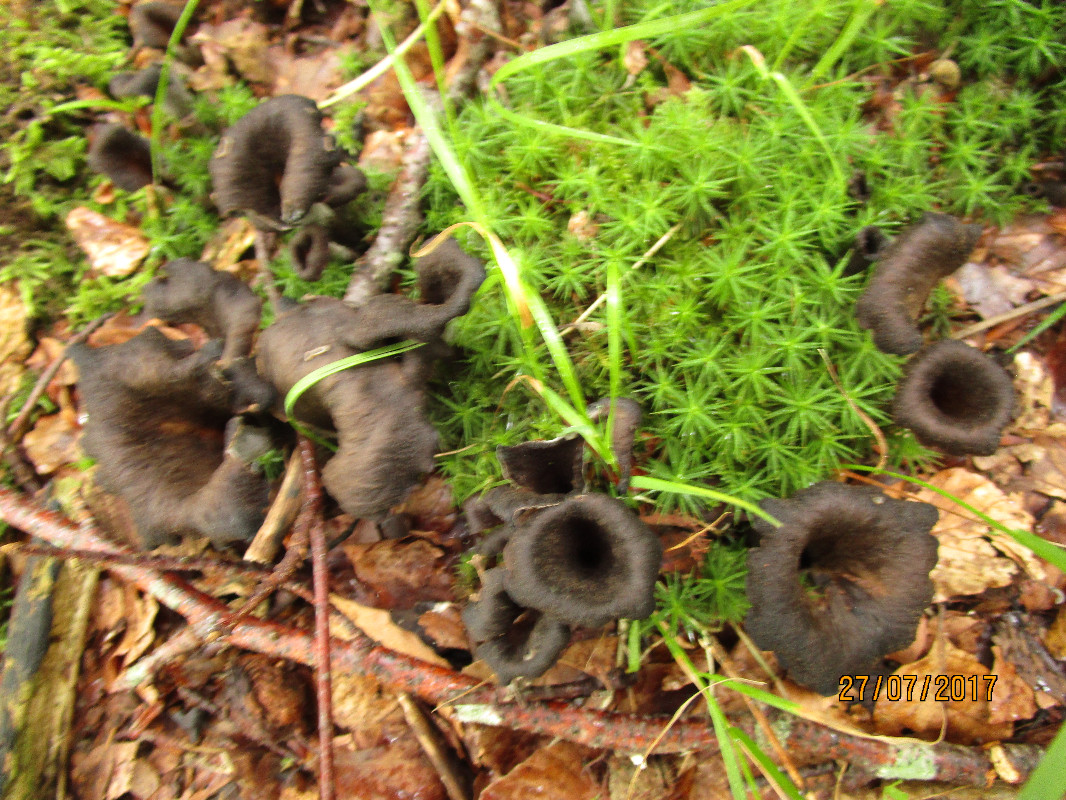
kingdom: Fungi
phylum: Basidiomycota
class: Agaricomycetes
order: Cantharellales
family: Hydnaceae
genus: Craterellus
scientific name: Craterellus cornucopioides
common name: trompetsvamp
